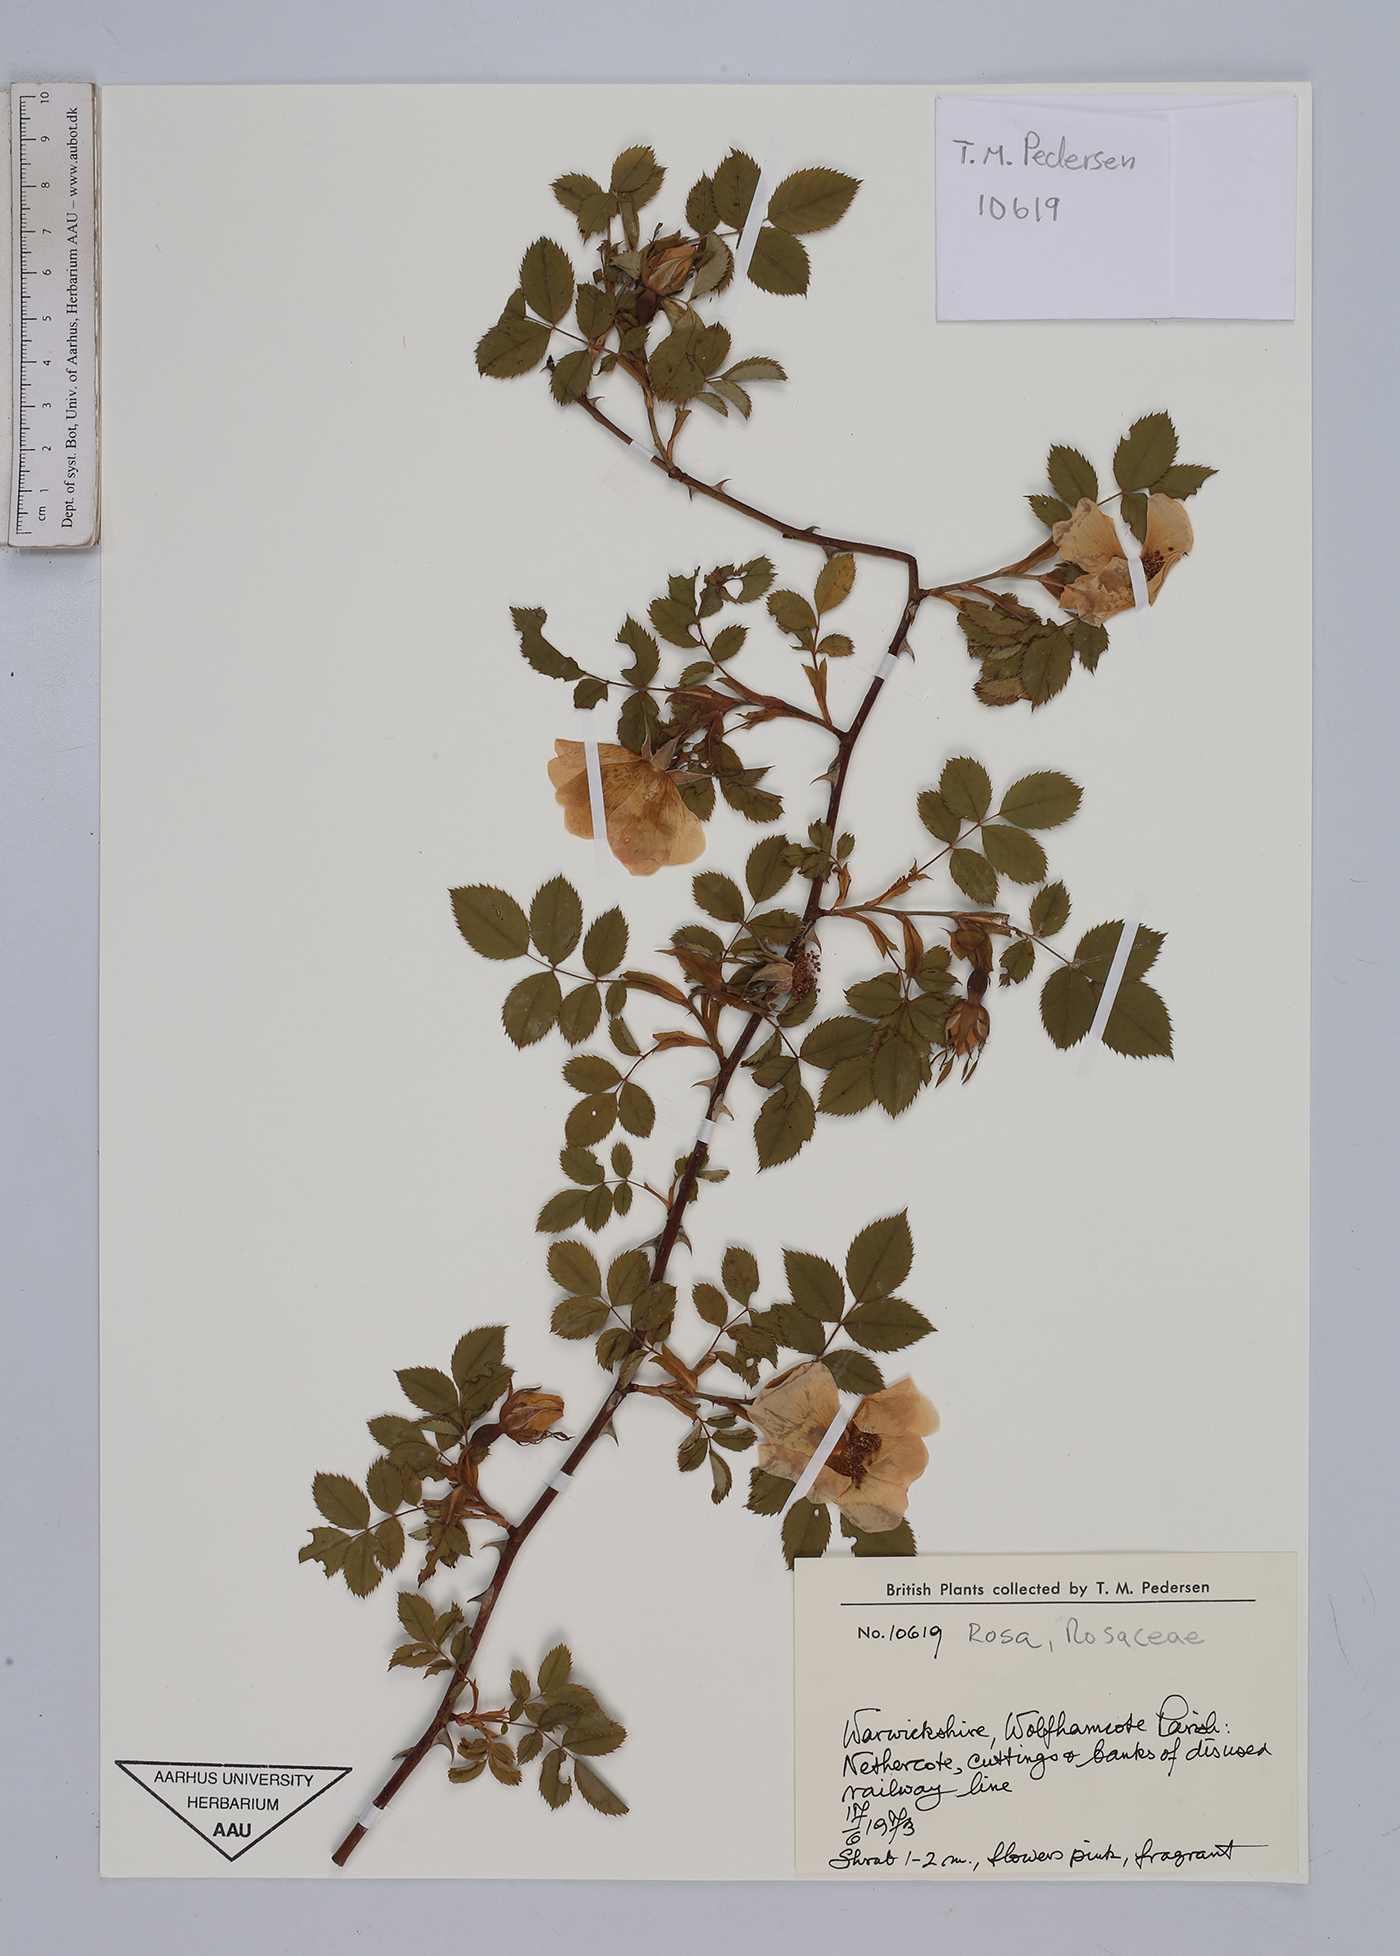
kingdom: Plantae
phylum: Tracheophyta
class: Magnoliopsida
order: Rosales
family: Rosaceae
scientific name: Rosaceae
